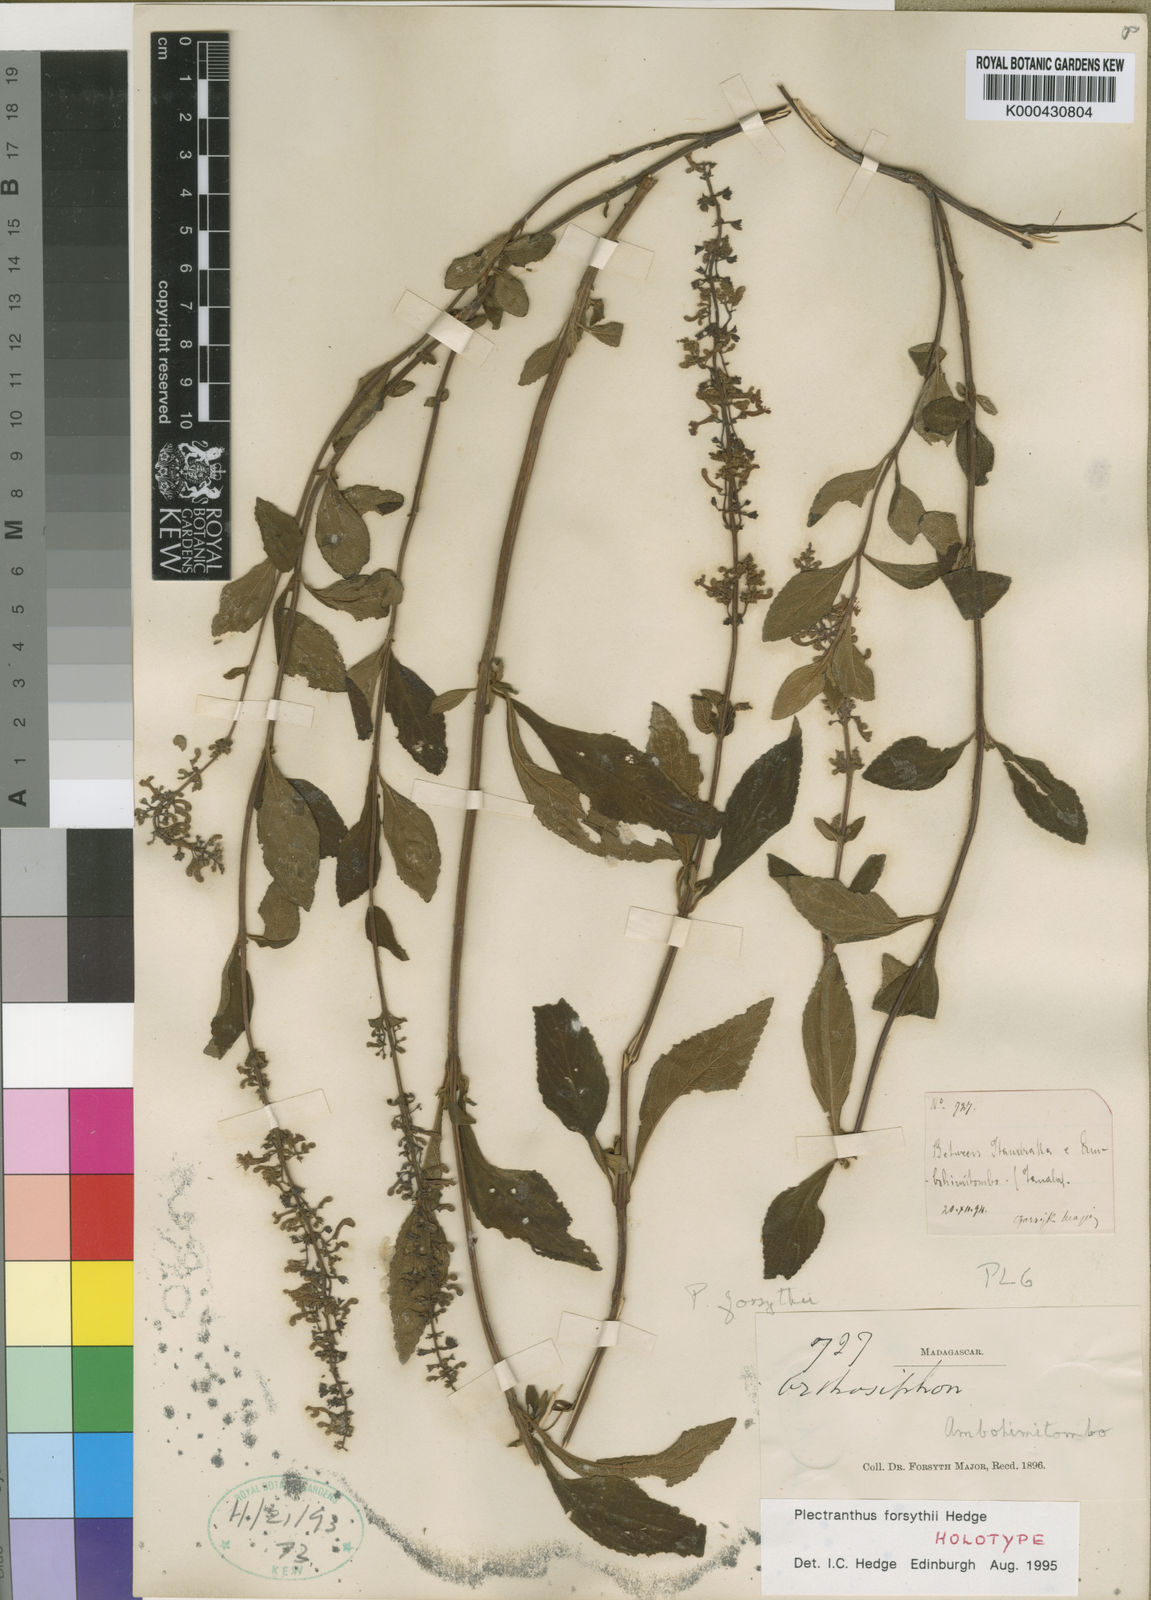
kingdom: Plantae
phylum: Tracheophyta
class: Magnoliopsida
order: Lamiales
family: Lamiaceae
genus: Plectranthus
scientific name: Plectranthus forsythii
